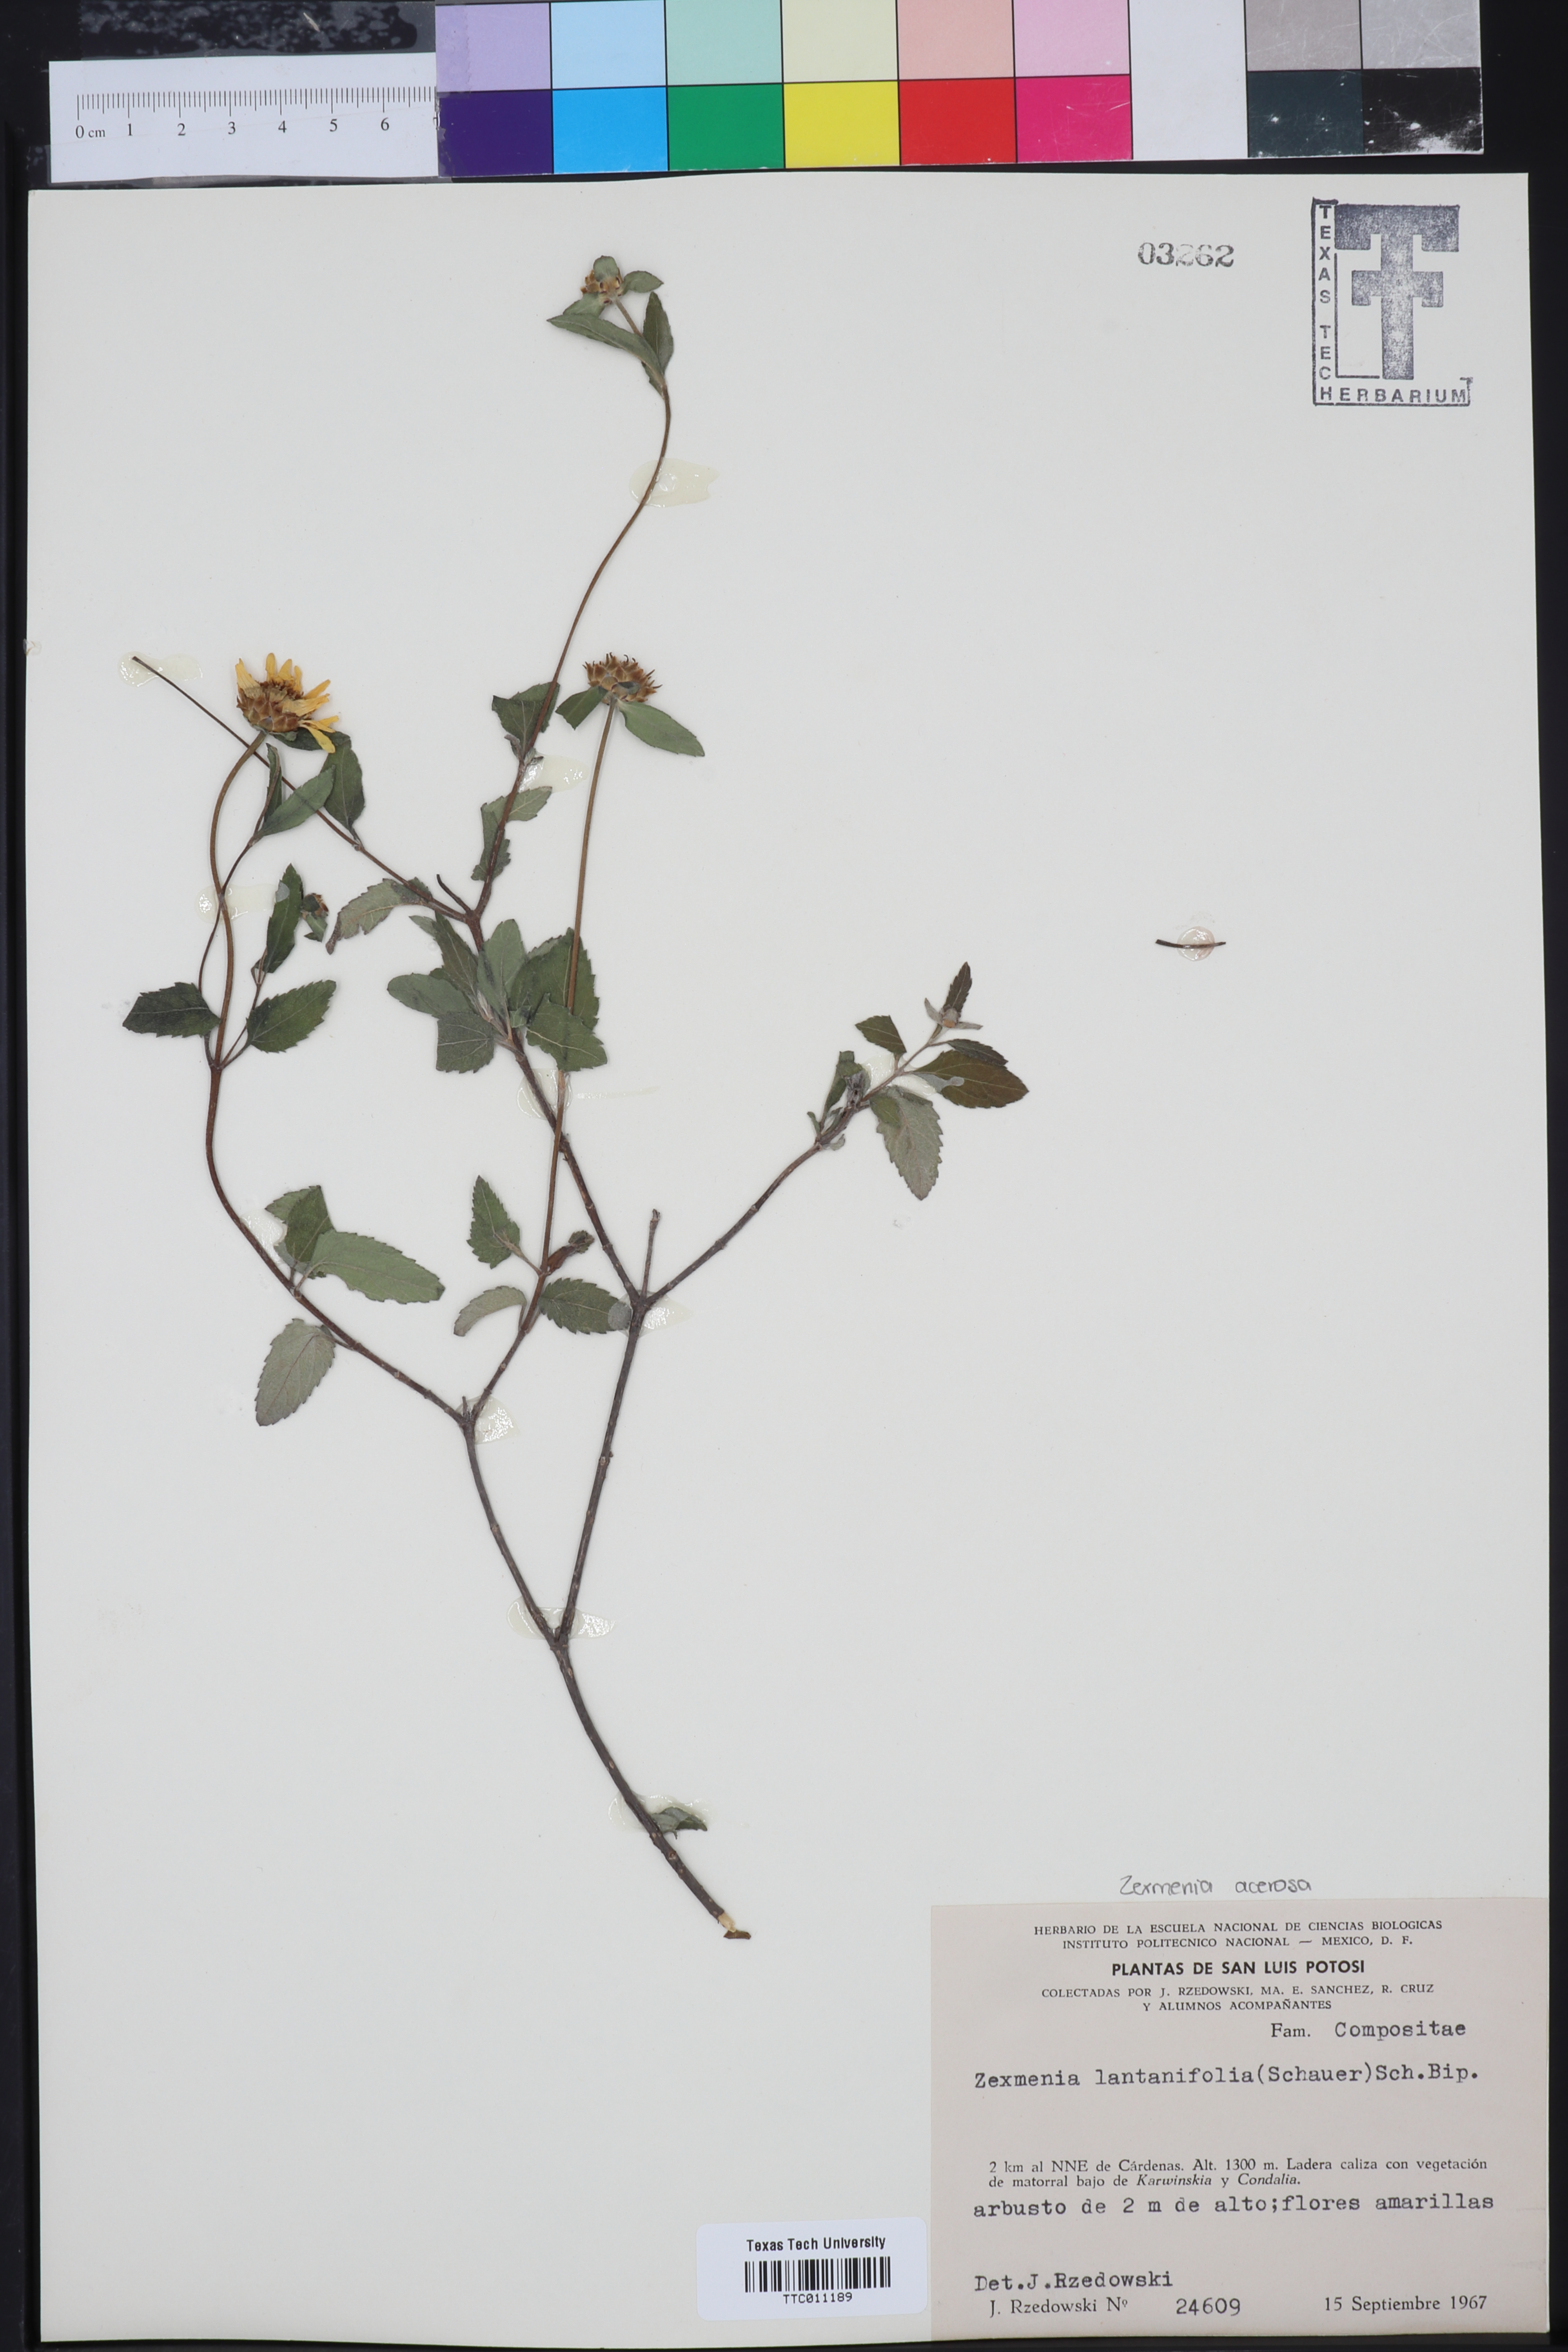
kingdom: Plantae
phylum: Tracheophyta
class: Magnoliopsida
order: Asterales
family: Asteraceae
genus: Jefea
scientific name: Jefea lantanifolia
